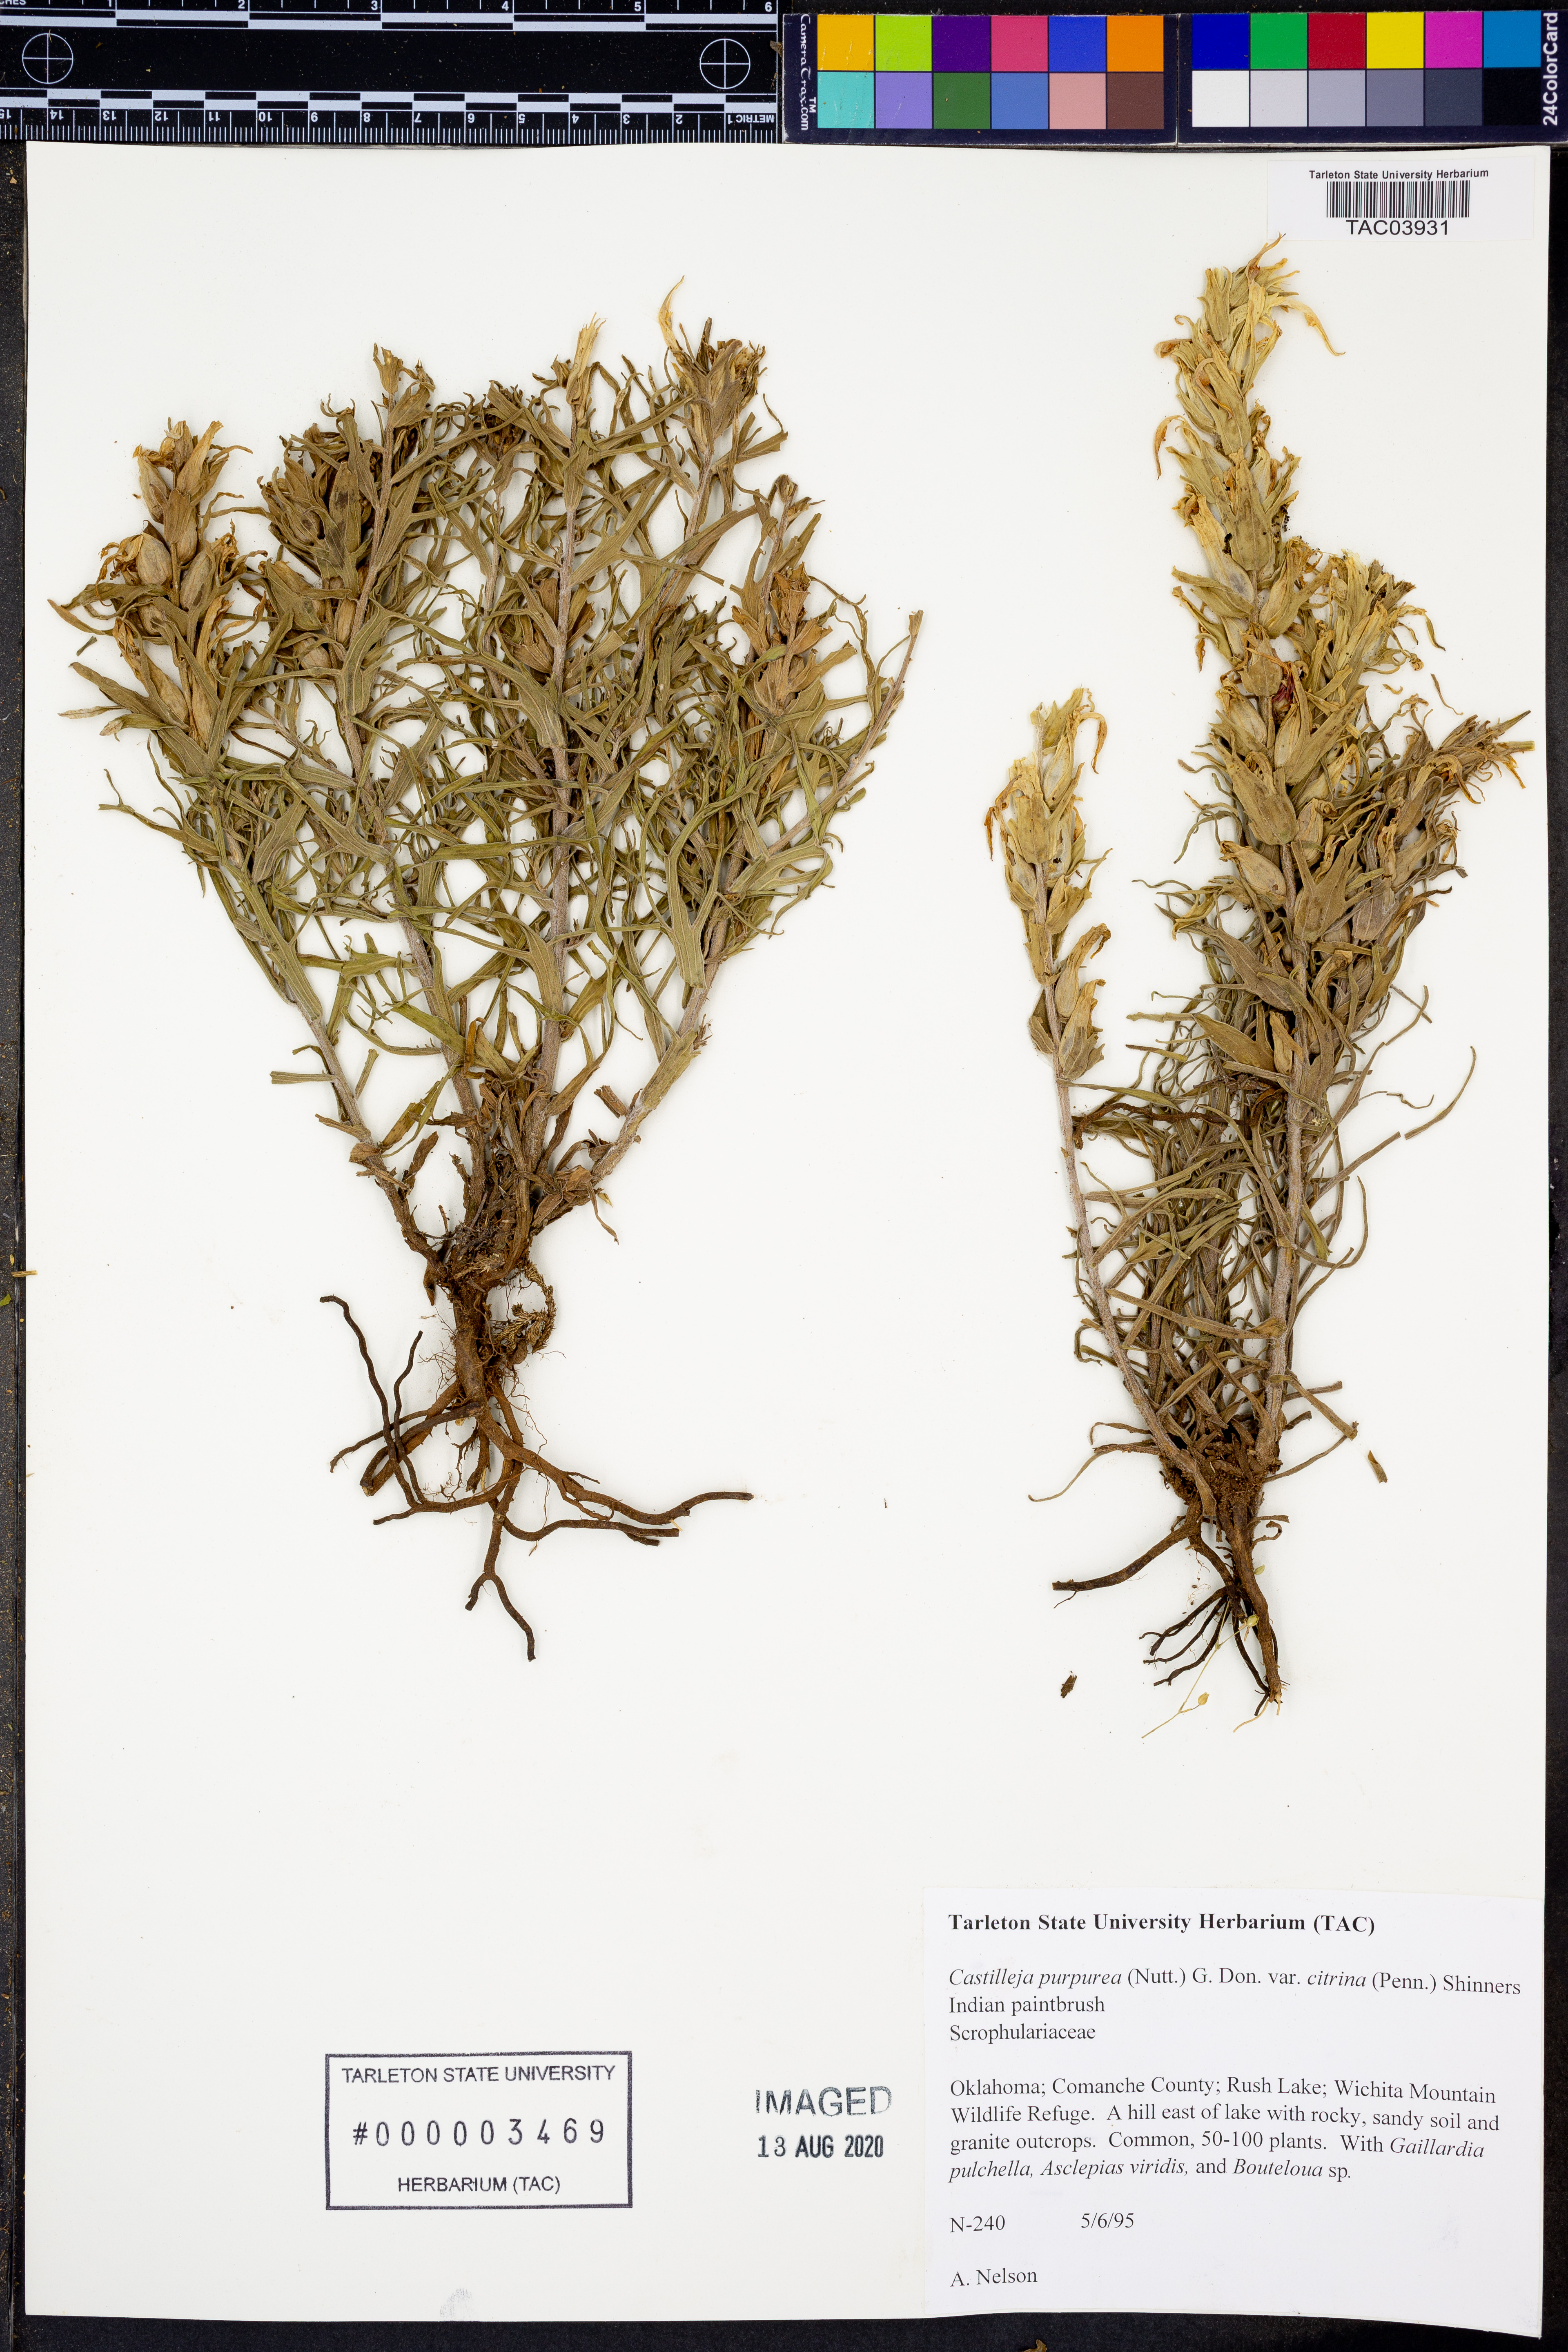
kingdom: Plantae
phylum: Tracheophyta
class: Magnoliopsida
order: Lamiales
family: Orobanchaceae
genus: Castilleja
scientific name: Castilleja citrina
